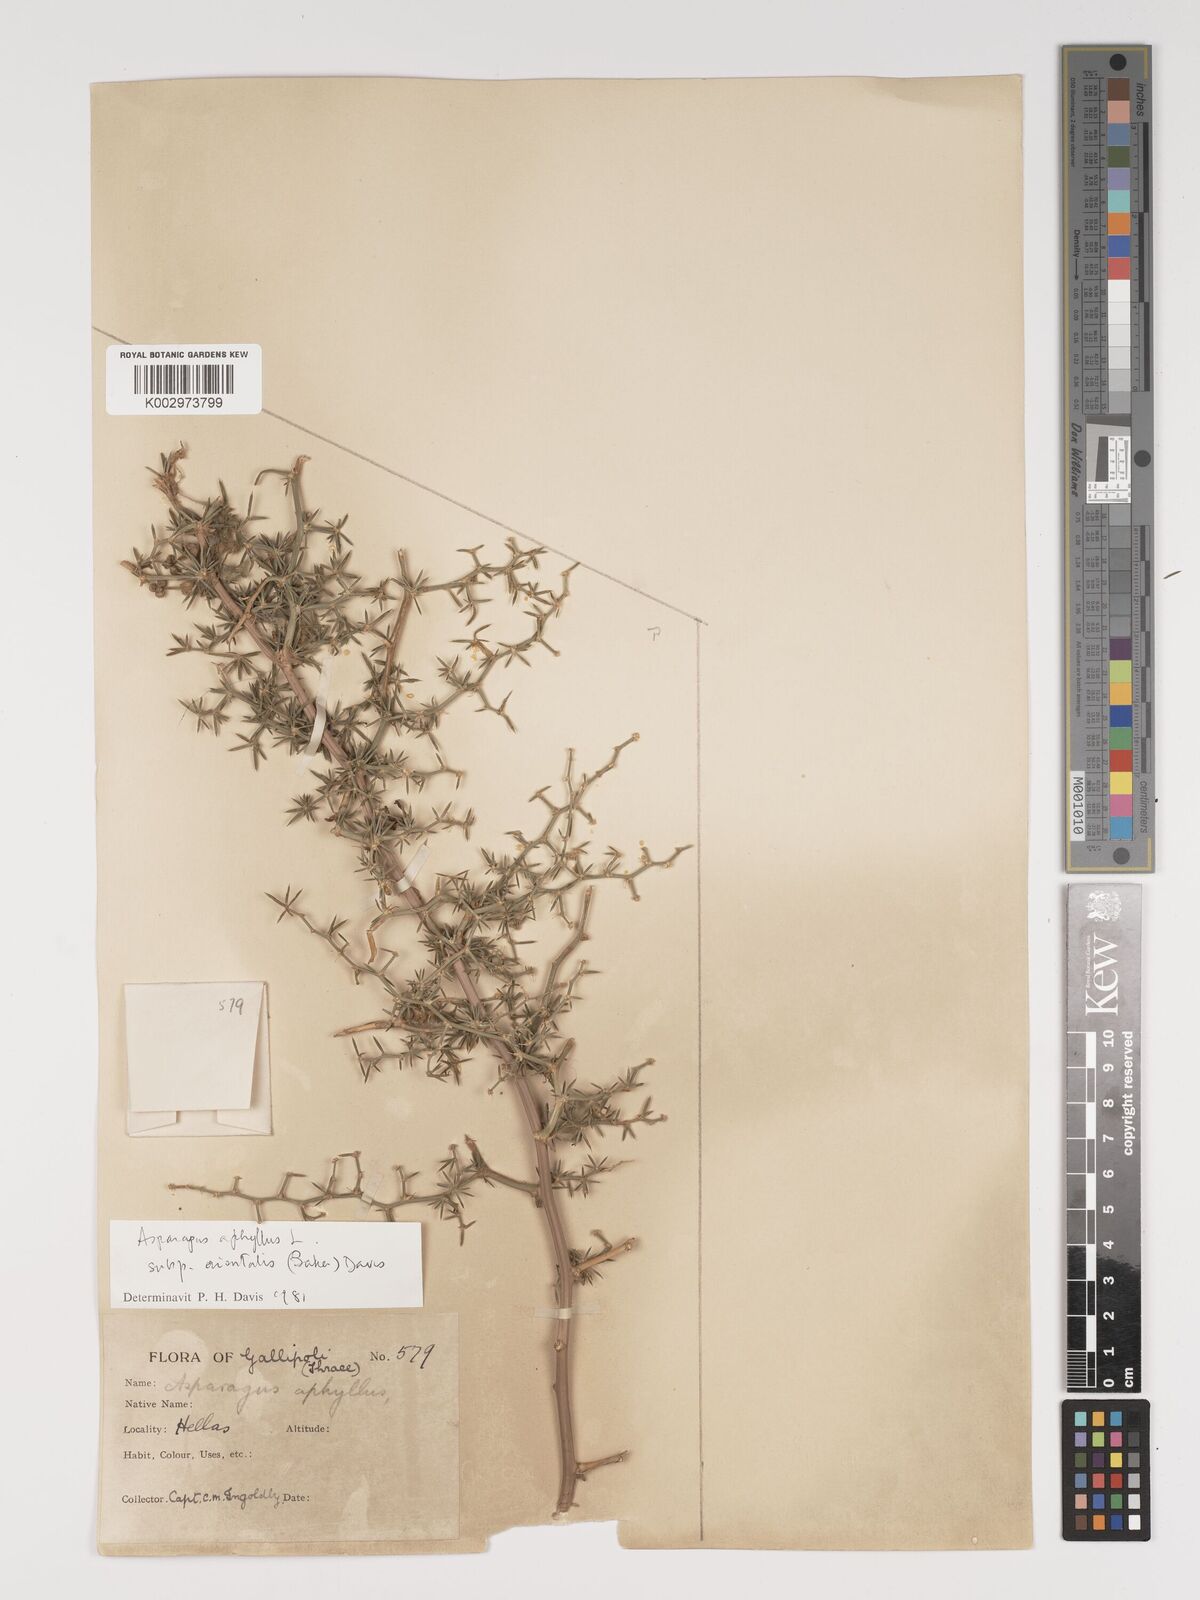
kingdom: Plantae
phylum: Tracheophyta
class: Liliopsida
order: Asparagales
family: Asparagaceae
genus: Asparagus
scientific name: Asparagus aphyllus
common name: Mediterranean asparagus
